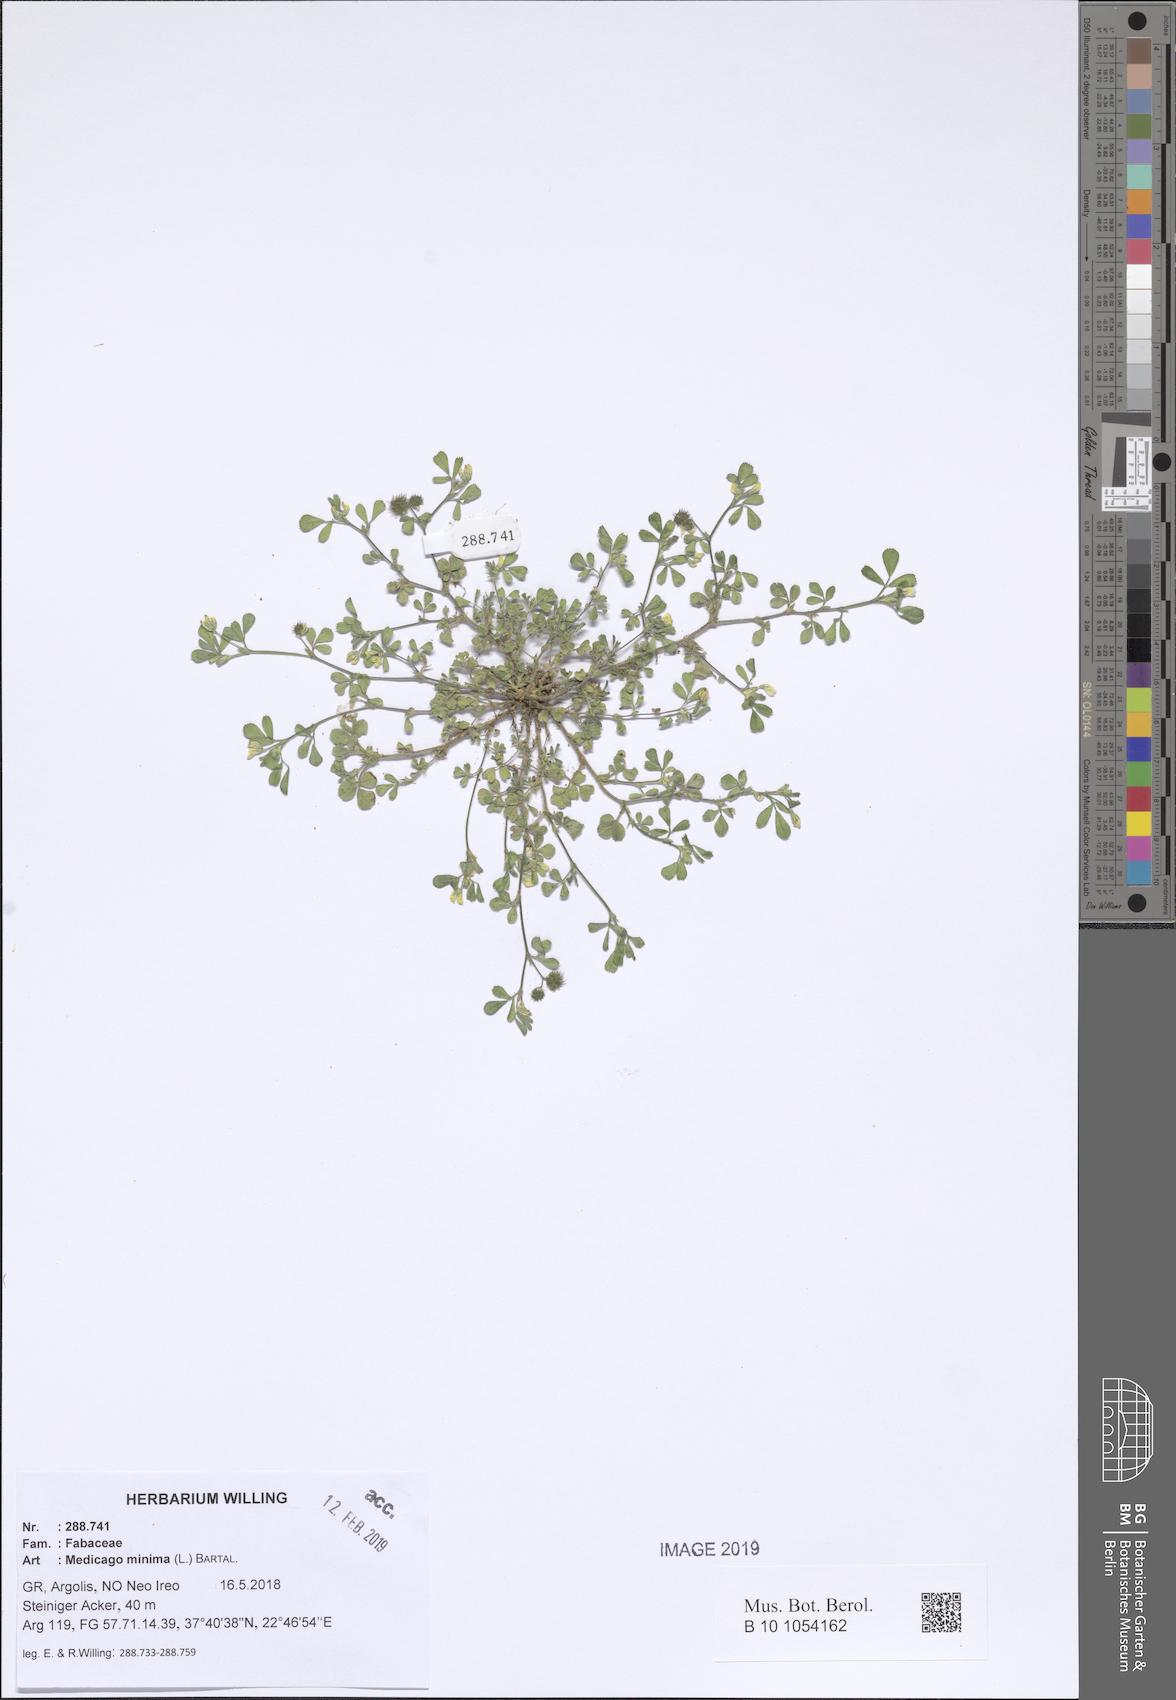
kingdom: Plantae
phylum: Tracheophyta
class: Magnoliopsida
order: Fabales
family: Fabaceae
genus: Medicago
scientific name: Medicago minima
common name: Little bur-clover
